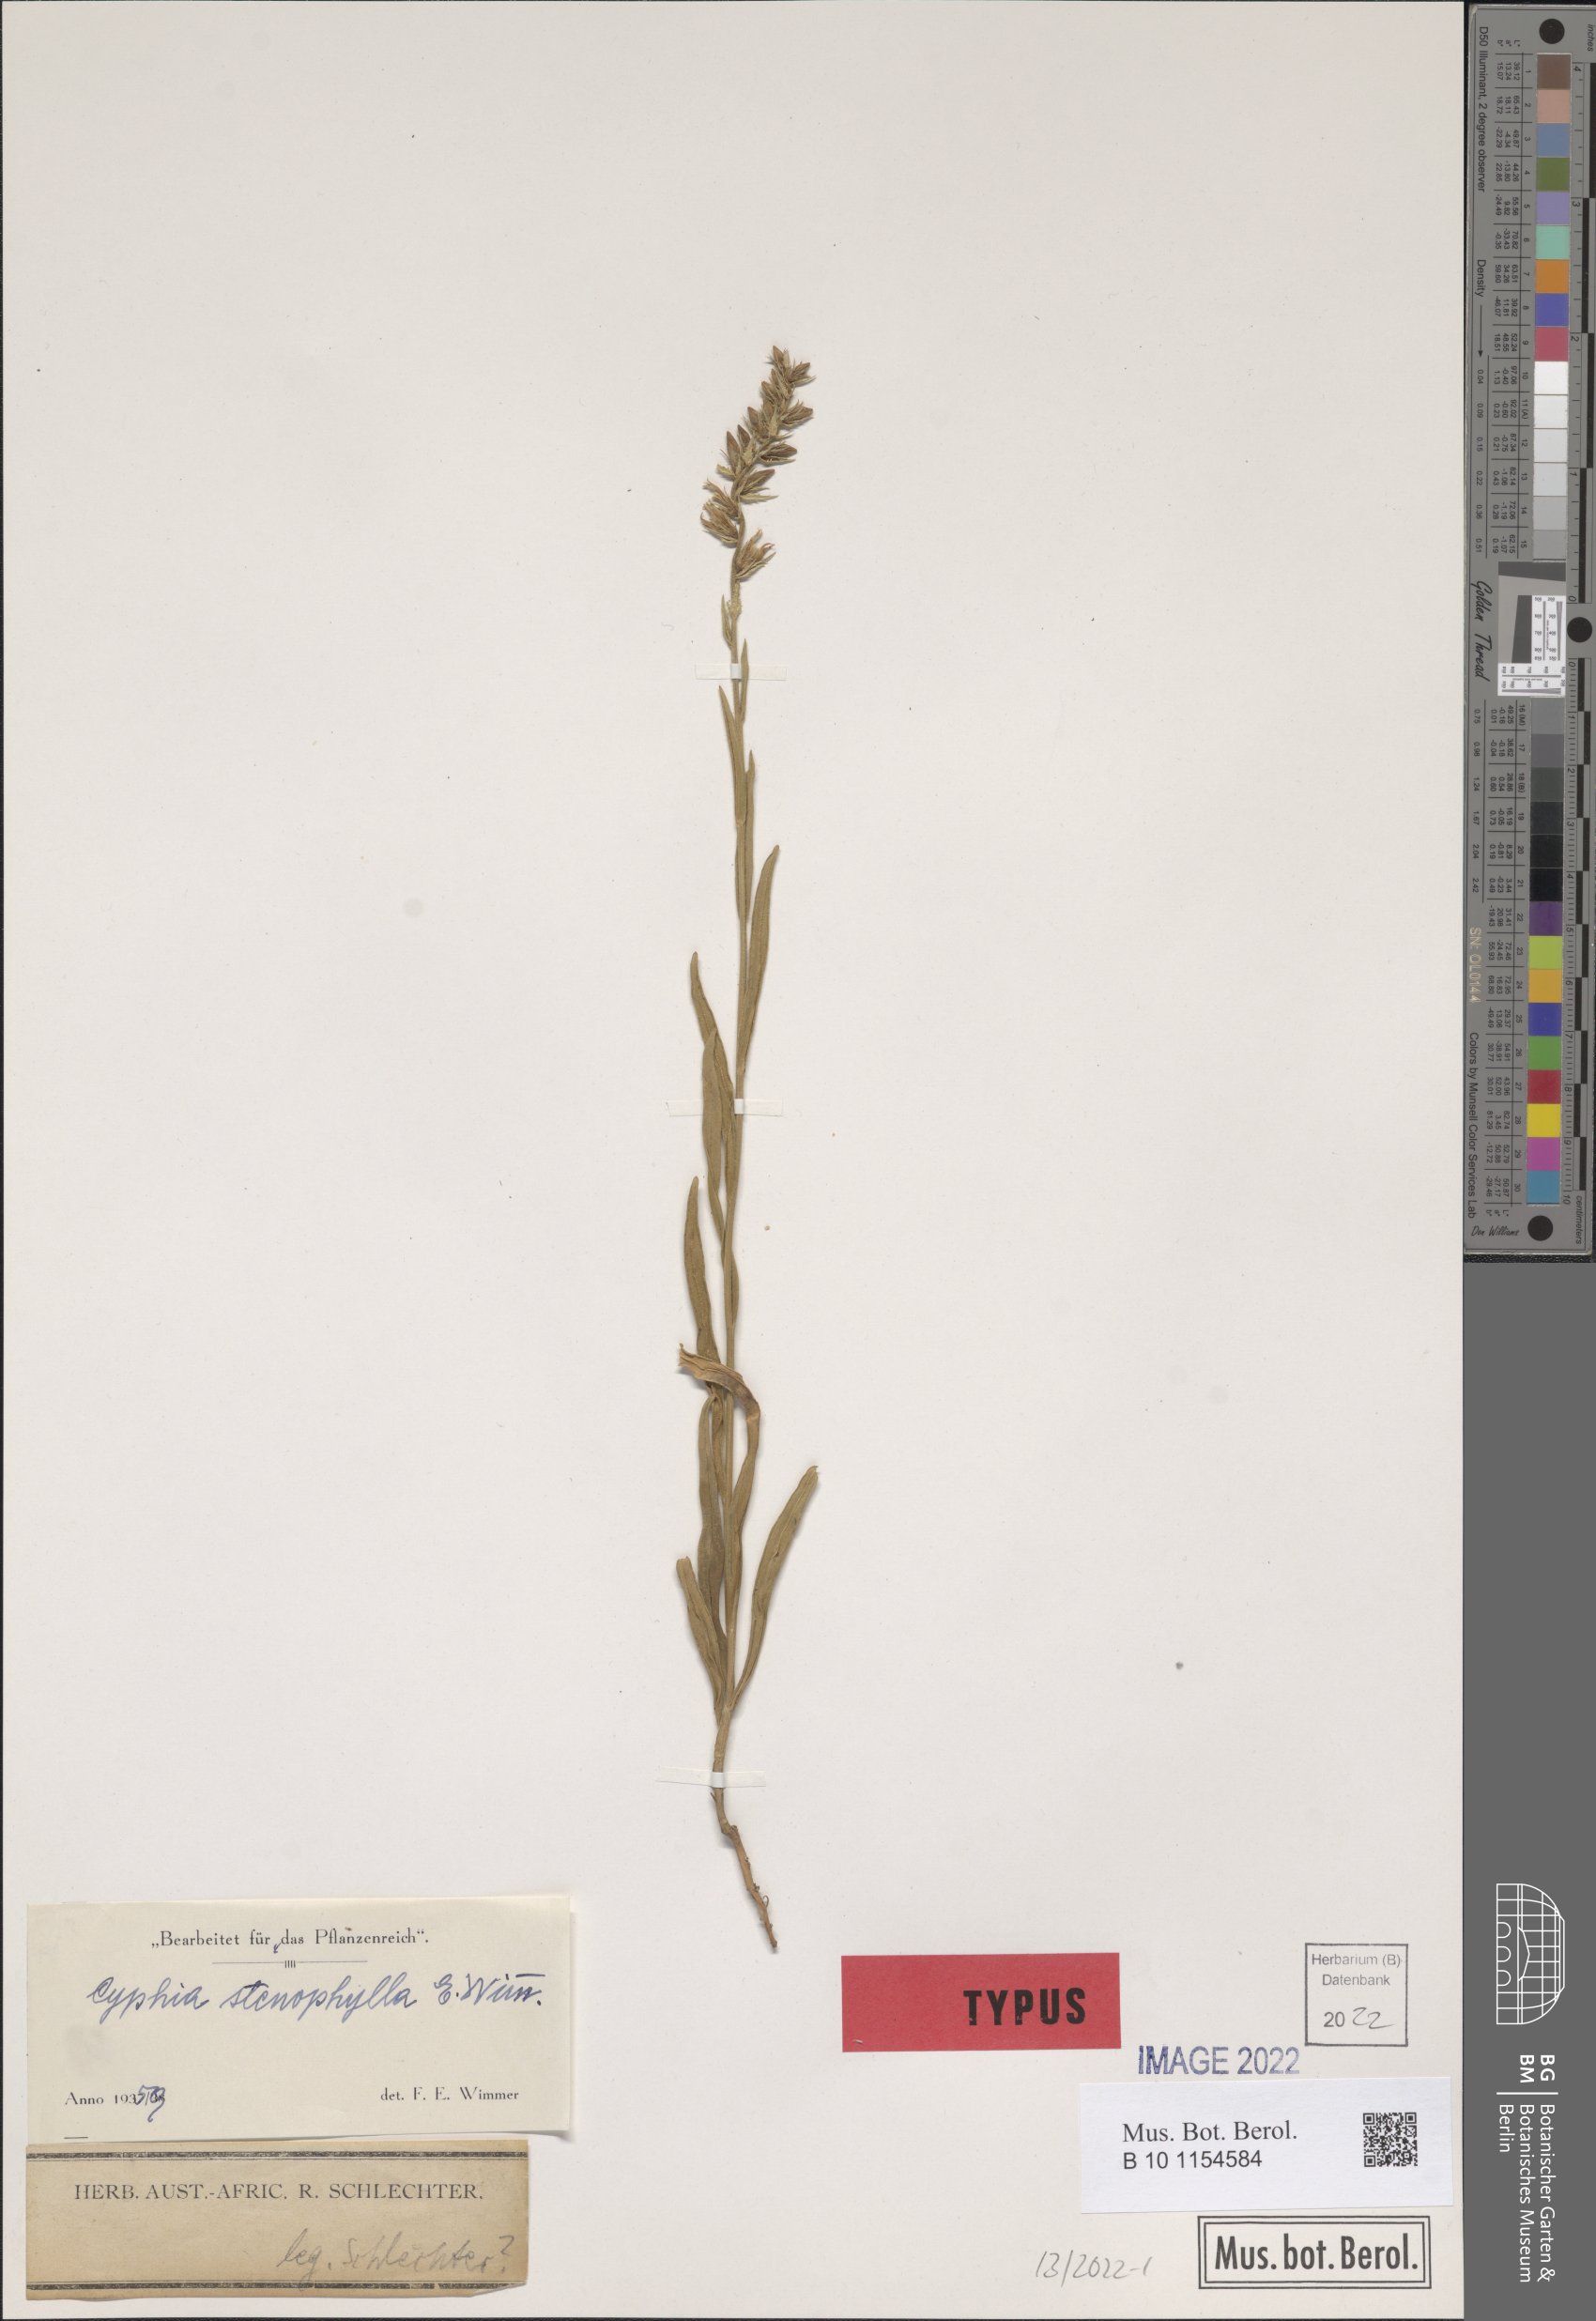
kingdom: Plantae
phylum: Tracheophyta
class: Magnoliopsida
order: Asterales
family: Campanulaceae
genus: Cyphia
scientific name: Cyphia stenophylla
